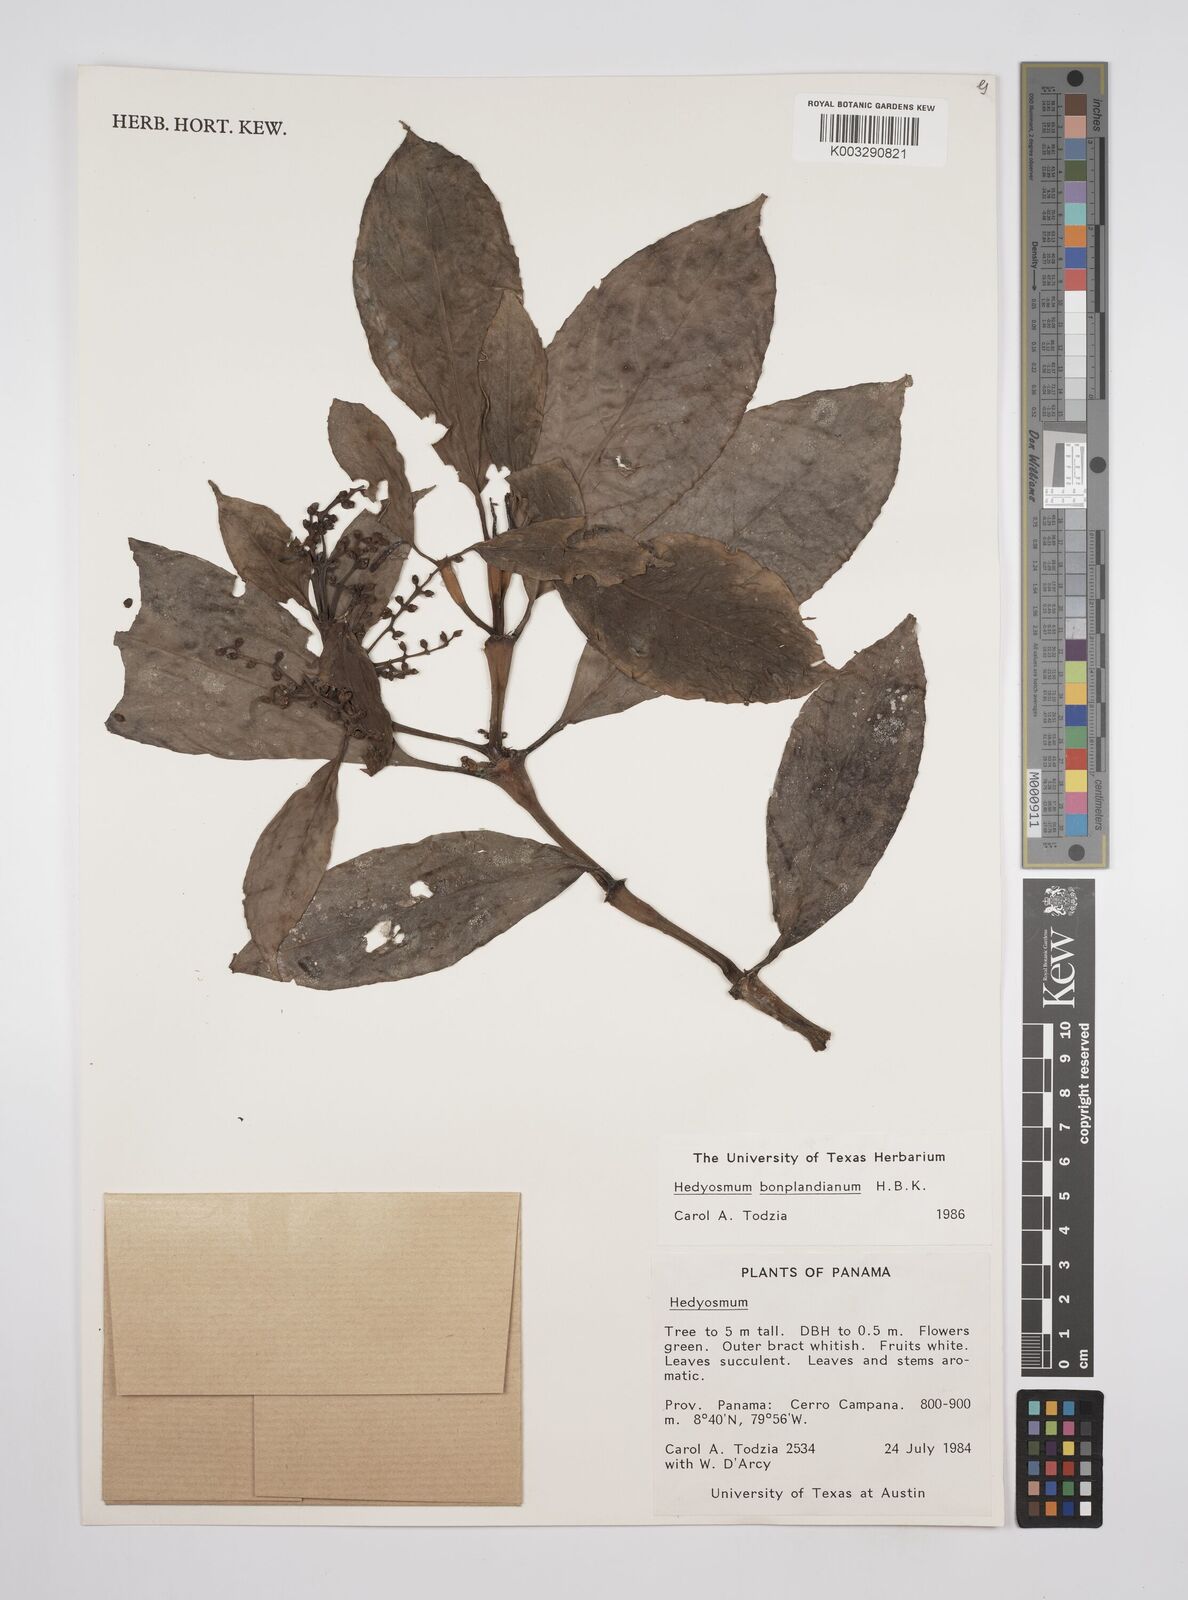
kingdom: Plantae
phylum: Tracheophyta
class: Magnoliopsida
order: Chloranthales
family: Chloranthaceae
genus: Hedyosmum
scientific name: Hedyosmum
